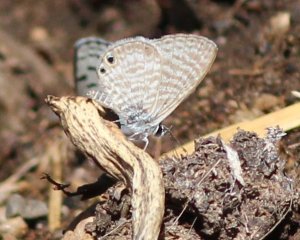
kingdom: Animalia
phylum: Arthropoda
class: Insecta
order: Lepidoptera
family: Lycaenidae
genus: Leptotes
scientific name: Leptotes marina
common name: Marine Blue
